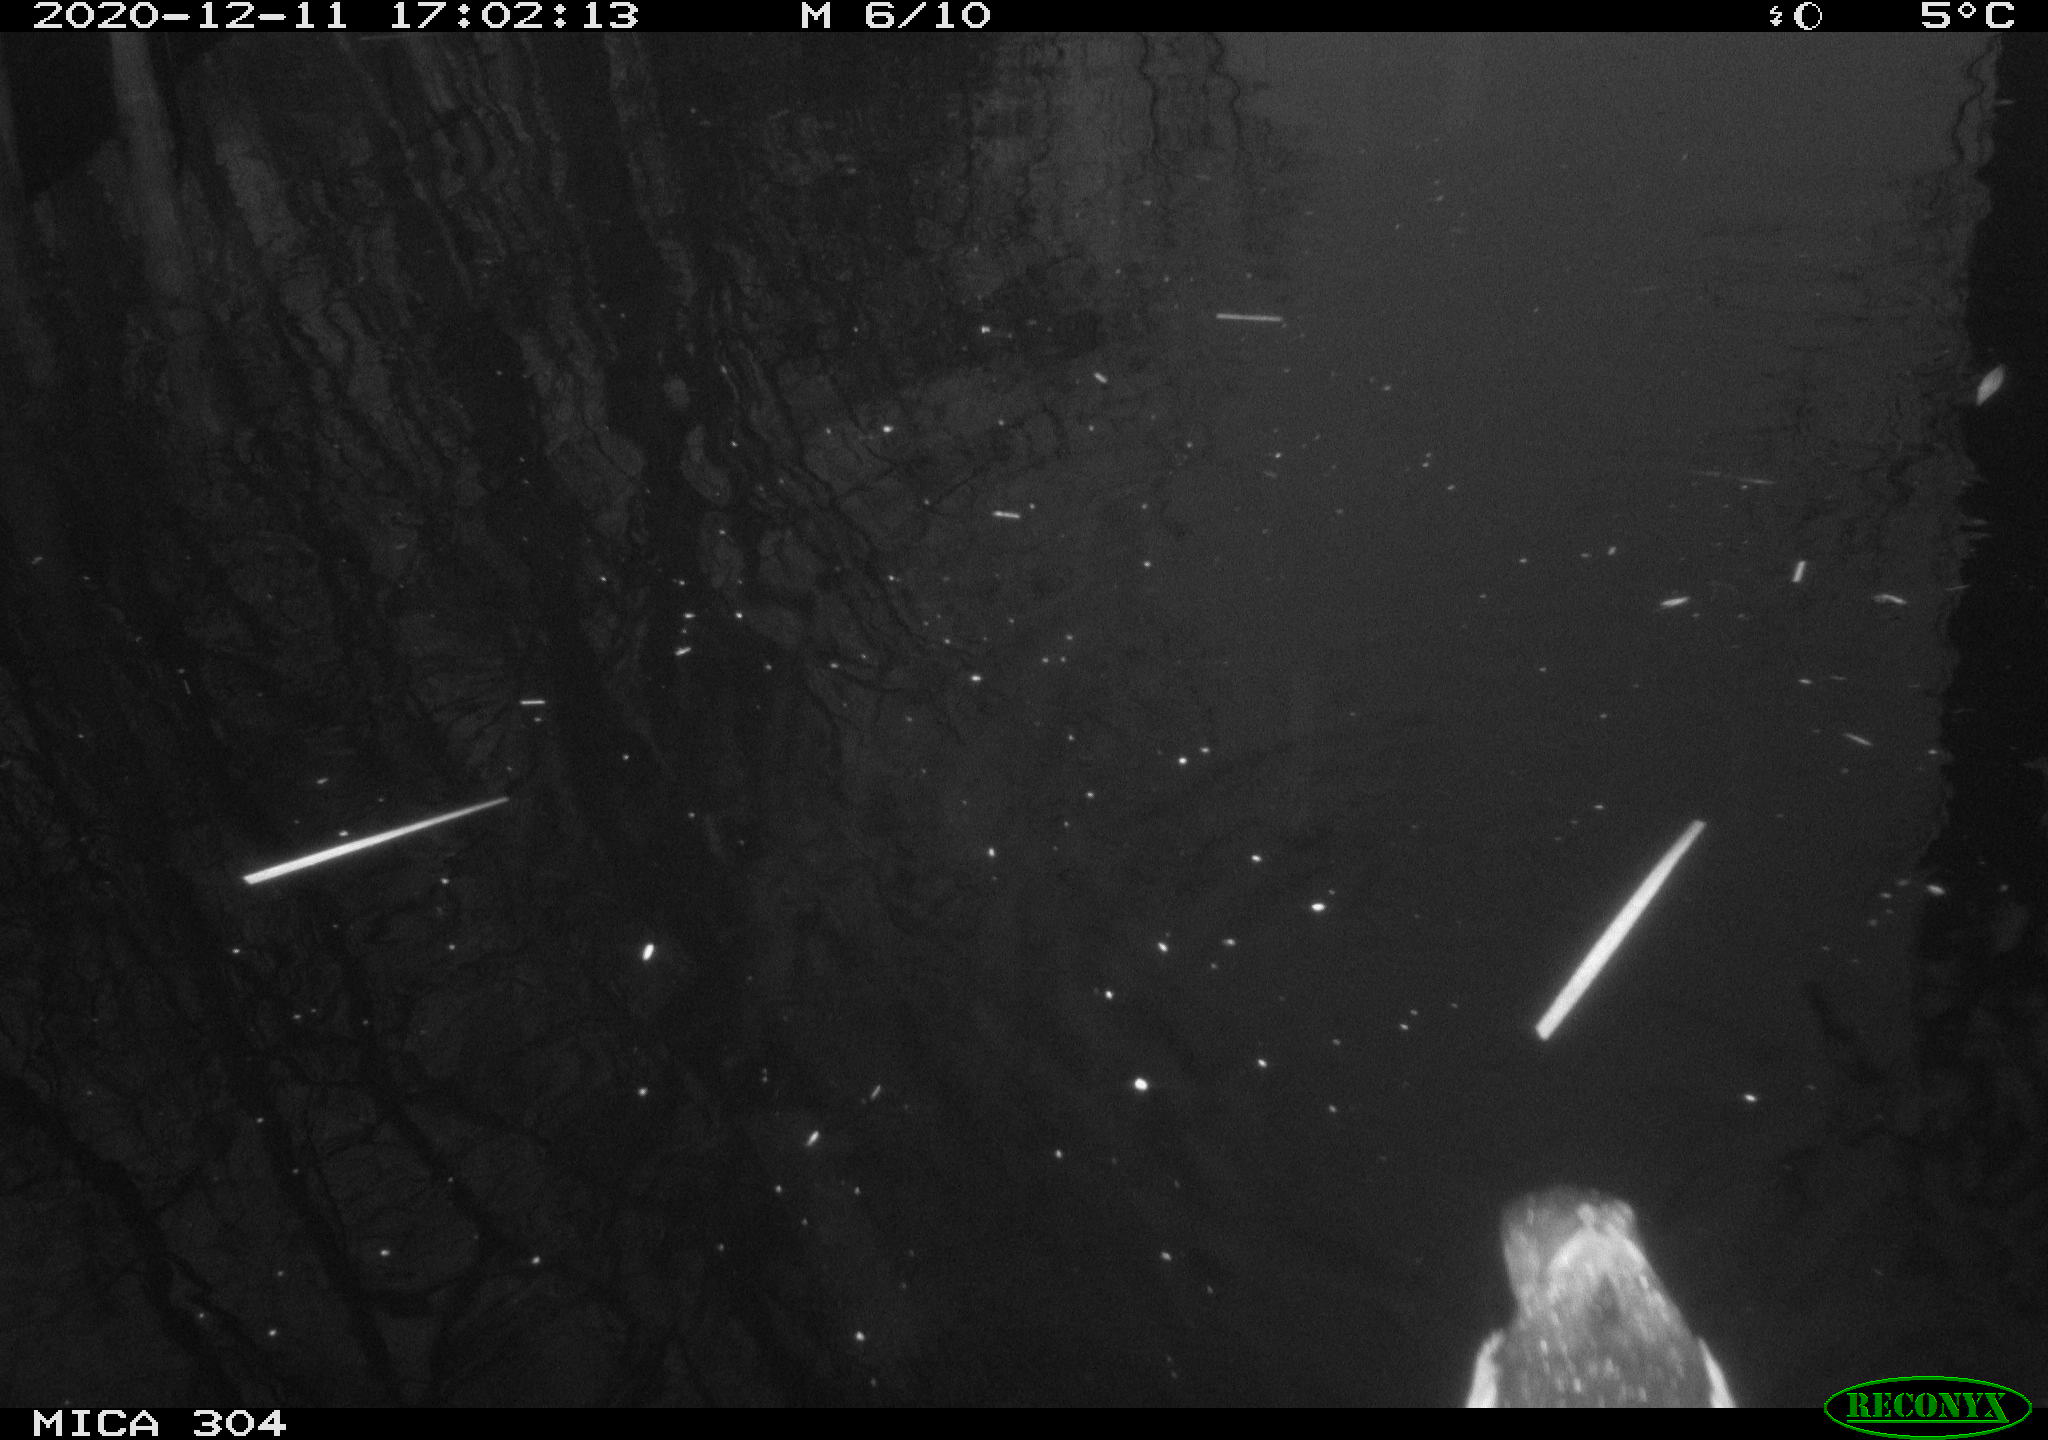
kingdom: Animalia
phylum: Chordata
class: Aves
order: Gruiformes
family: Rallidae
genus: Gallinula
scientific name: Gallinula chloropus
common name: Common moorhen
